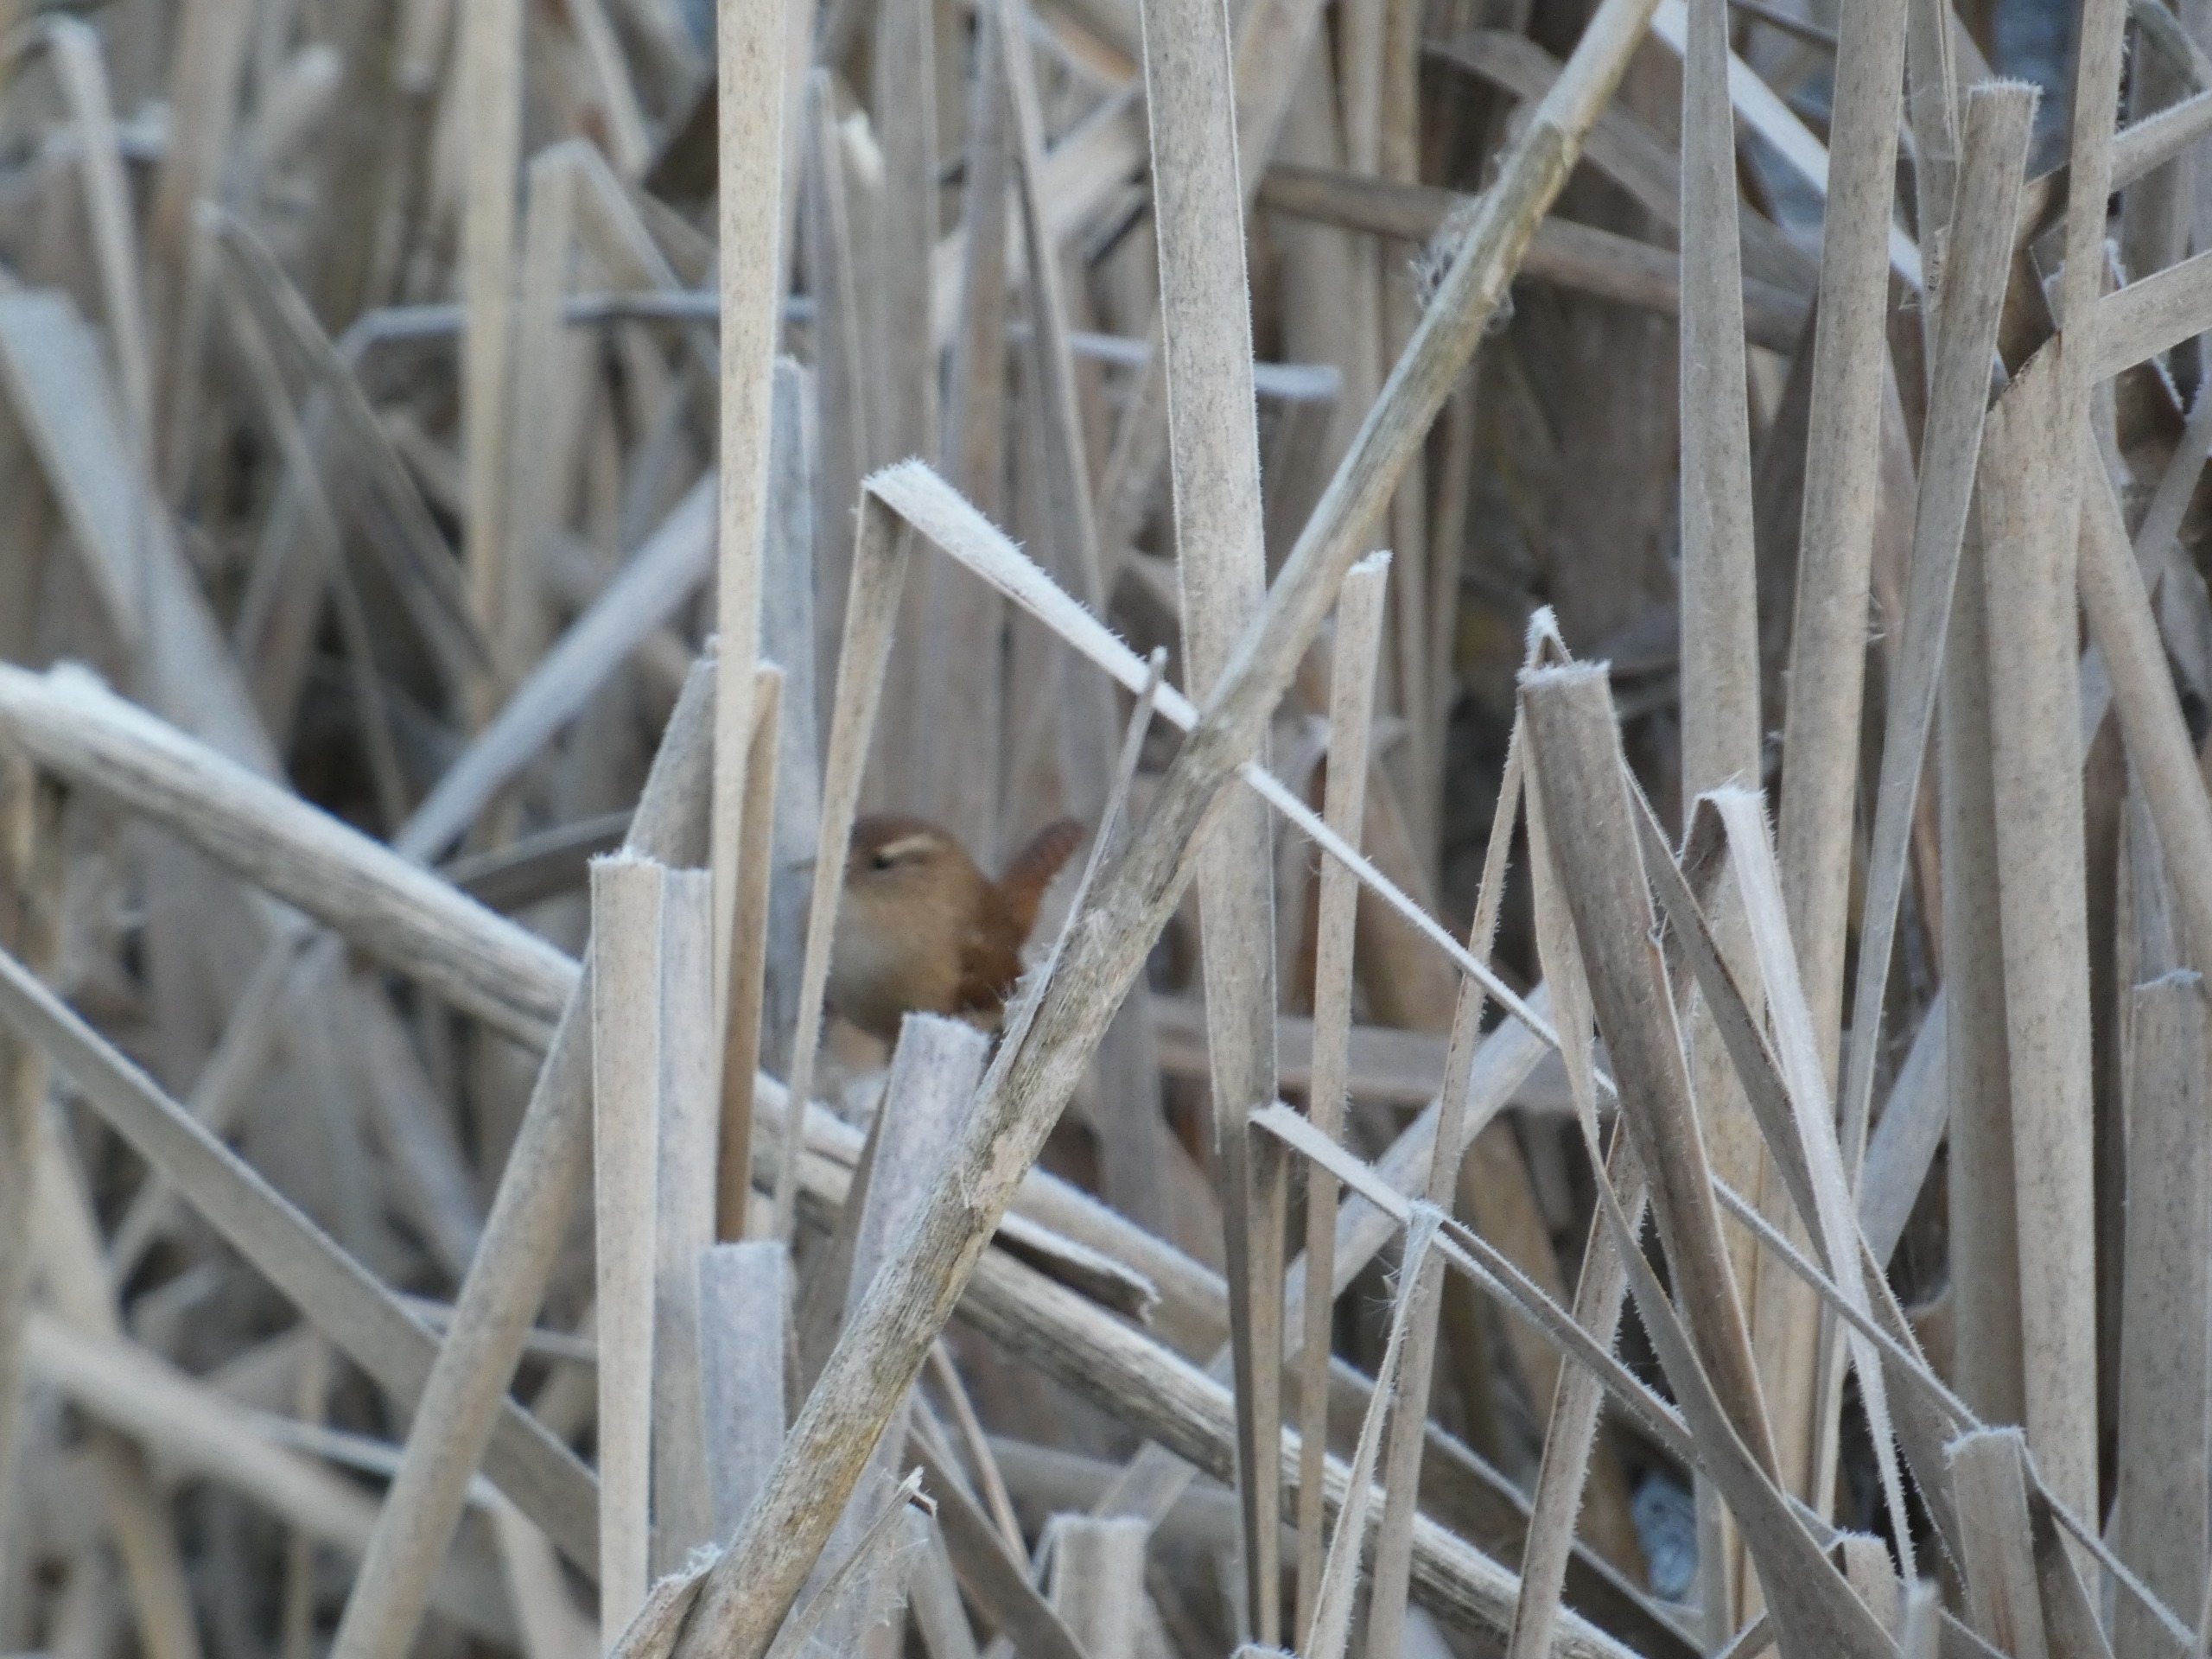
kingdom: Animalia
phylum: Chordata
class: Aves
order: Passeriformes
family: Troglodytidae
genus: Troglodytes
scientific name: Troglodytes troglodytes
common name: Gærdesmutte
